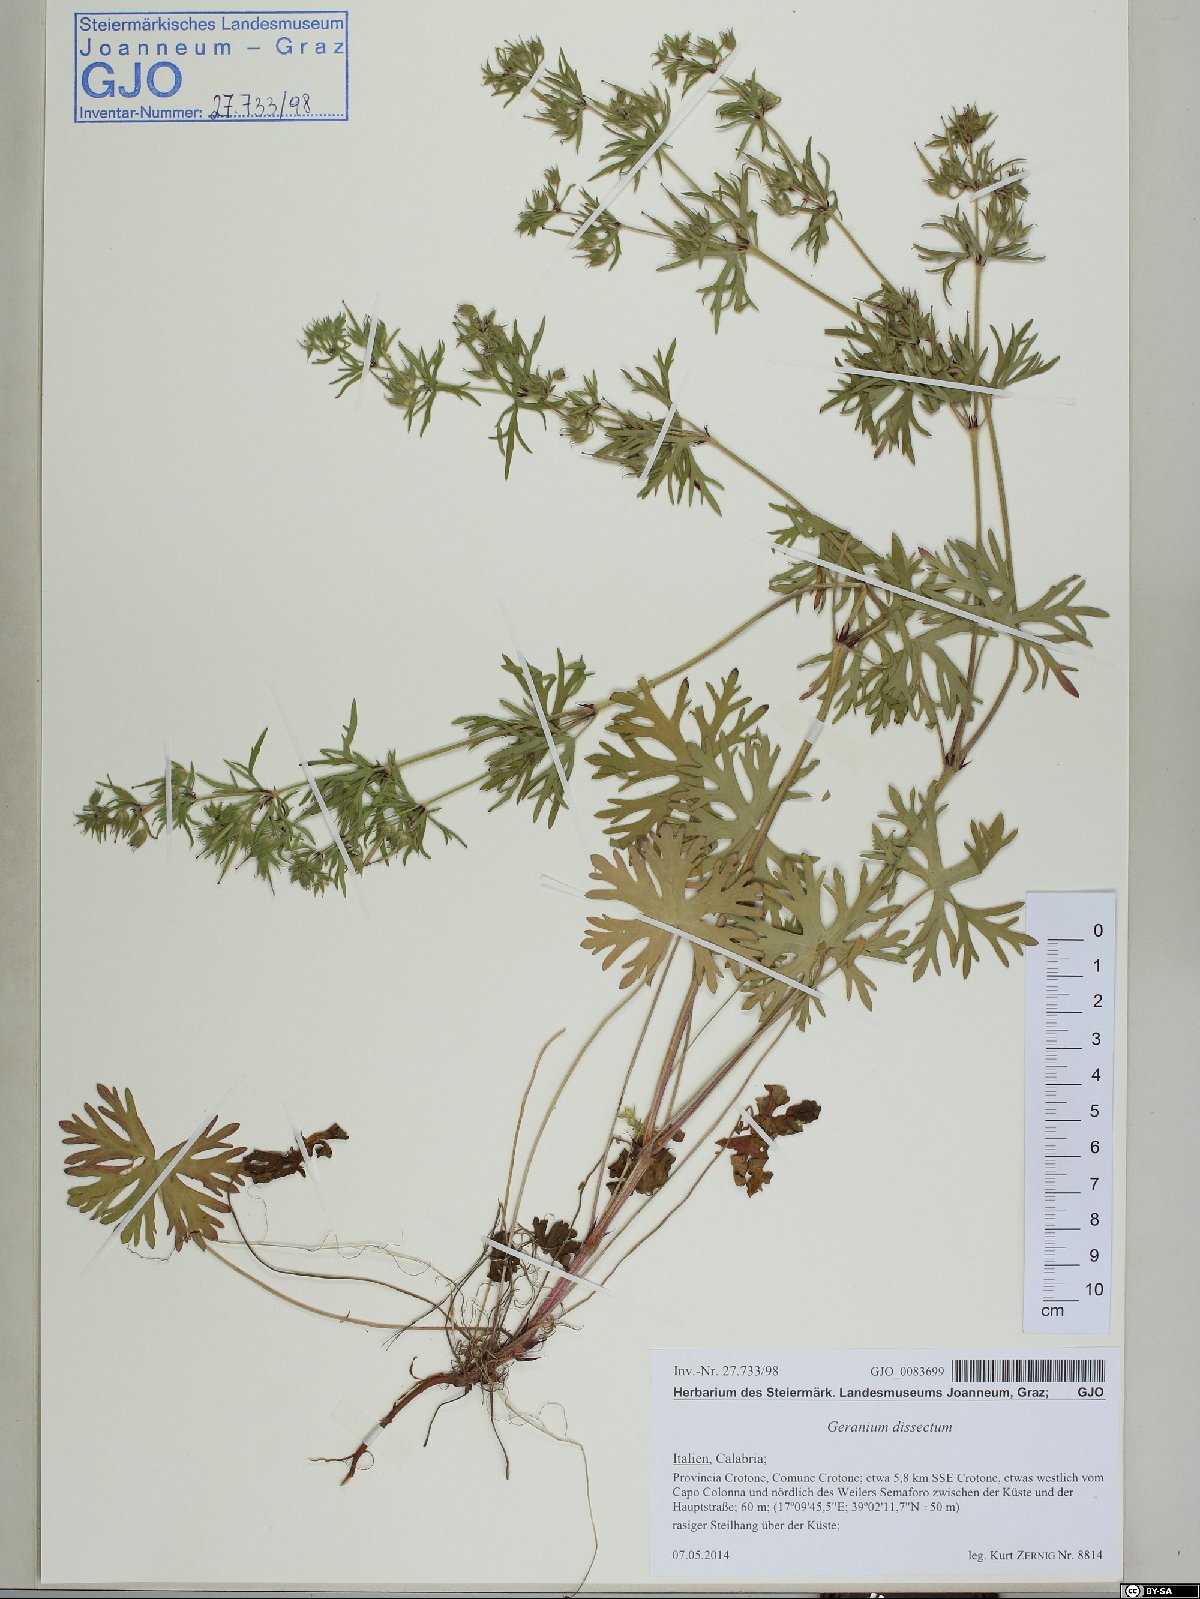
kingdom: Plantae
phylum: Tracheophyta
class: Magnoliopsida
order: Geraniales
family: Geraniaceae
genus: Geranium
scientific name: Geranium dissectum
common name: Cut-leaved crane's-bill
